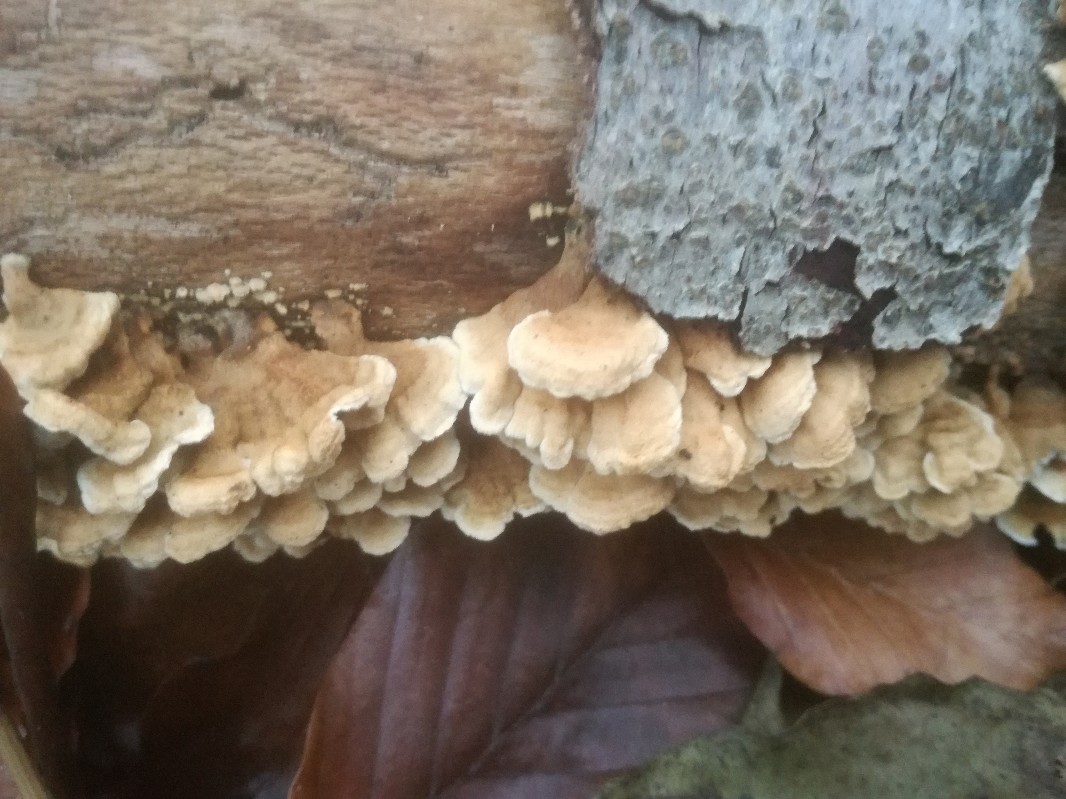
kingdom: Fungi
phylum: Basidiomycota
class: Agaricomycetes
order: Amylocorticiales
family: Amylocorticiaceae
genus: Plicaturopsis
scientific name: Plicaturopsis crispa
